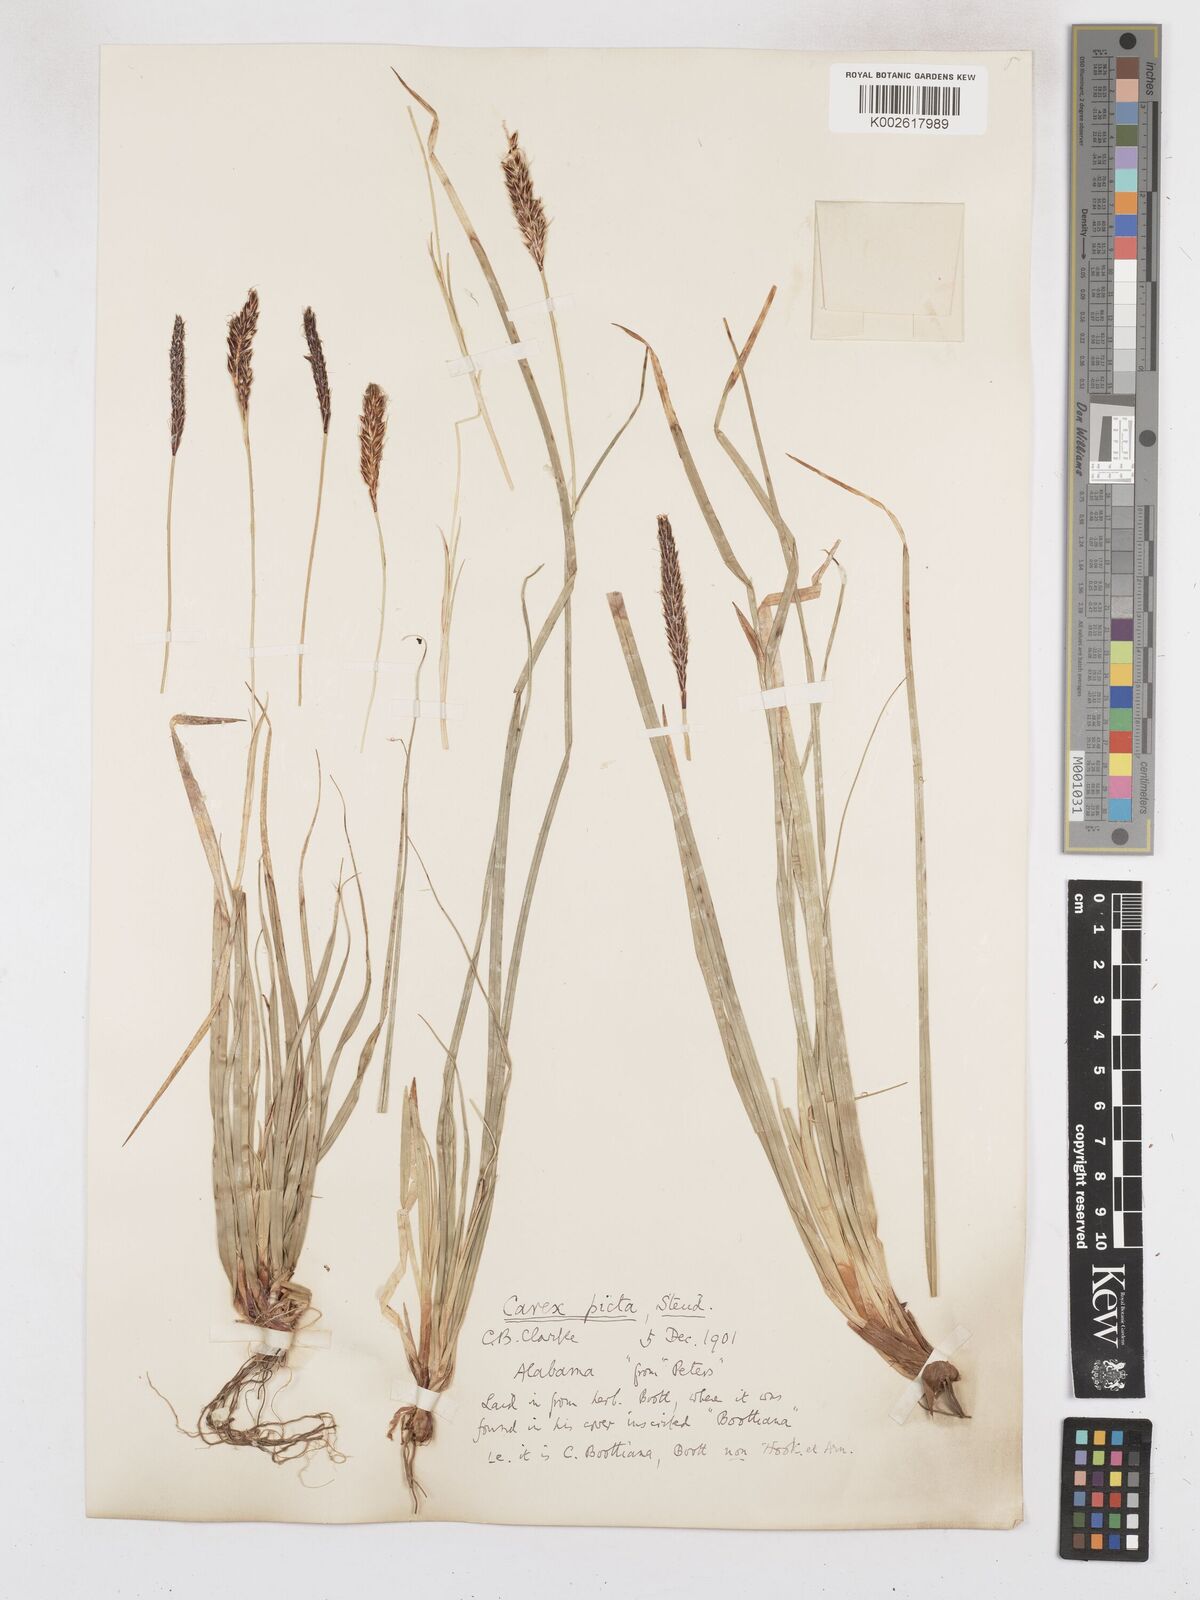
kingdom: Plantae
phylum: Tracheophyta
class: Liliopsida
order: Poales
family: Cyperaceae
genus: Carex
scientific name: Carex picta
